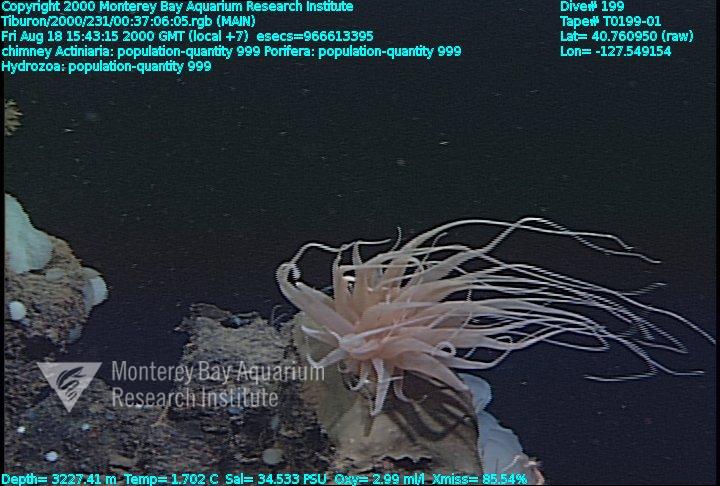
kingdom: Animalia
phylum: Porifera
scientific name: Porifera
